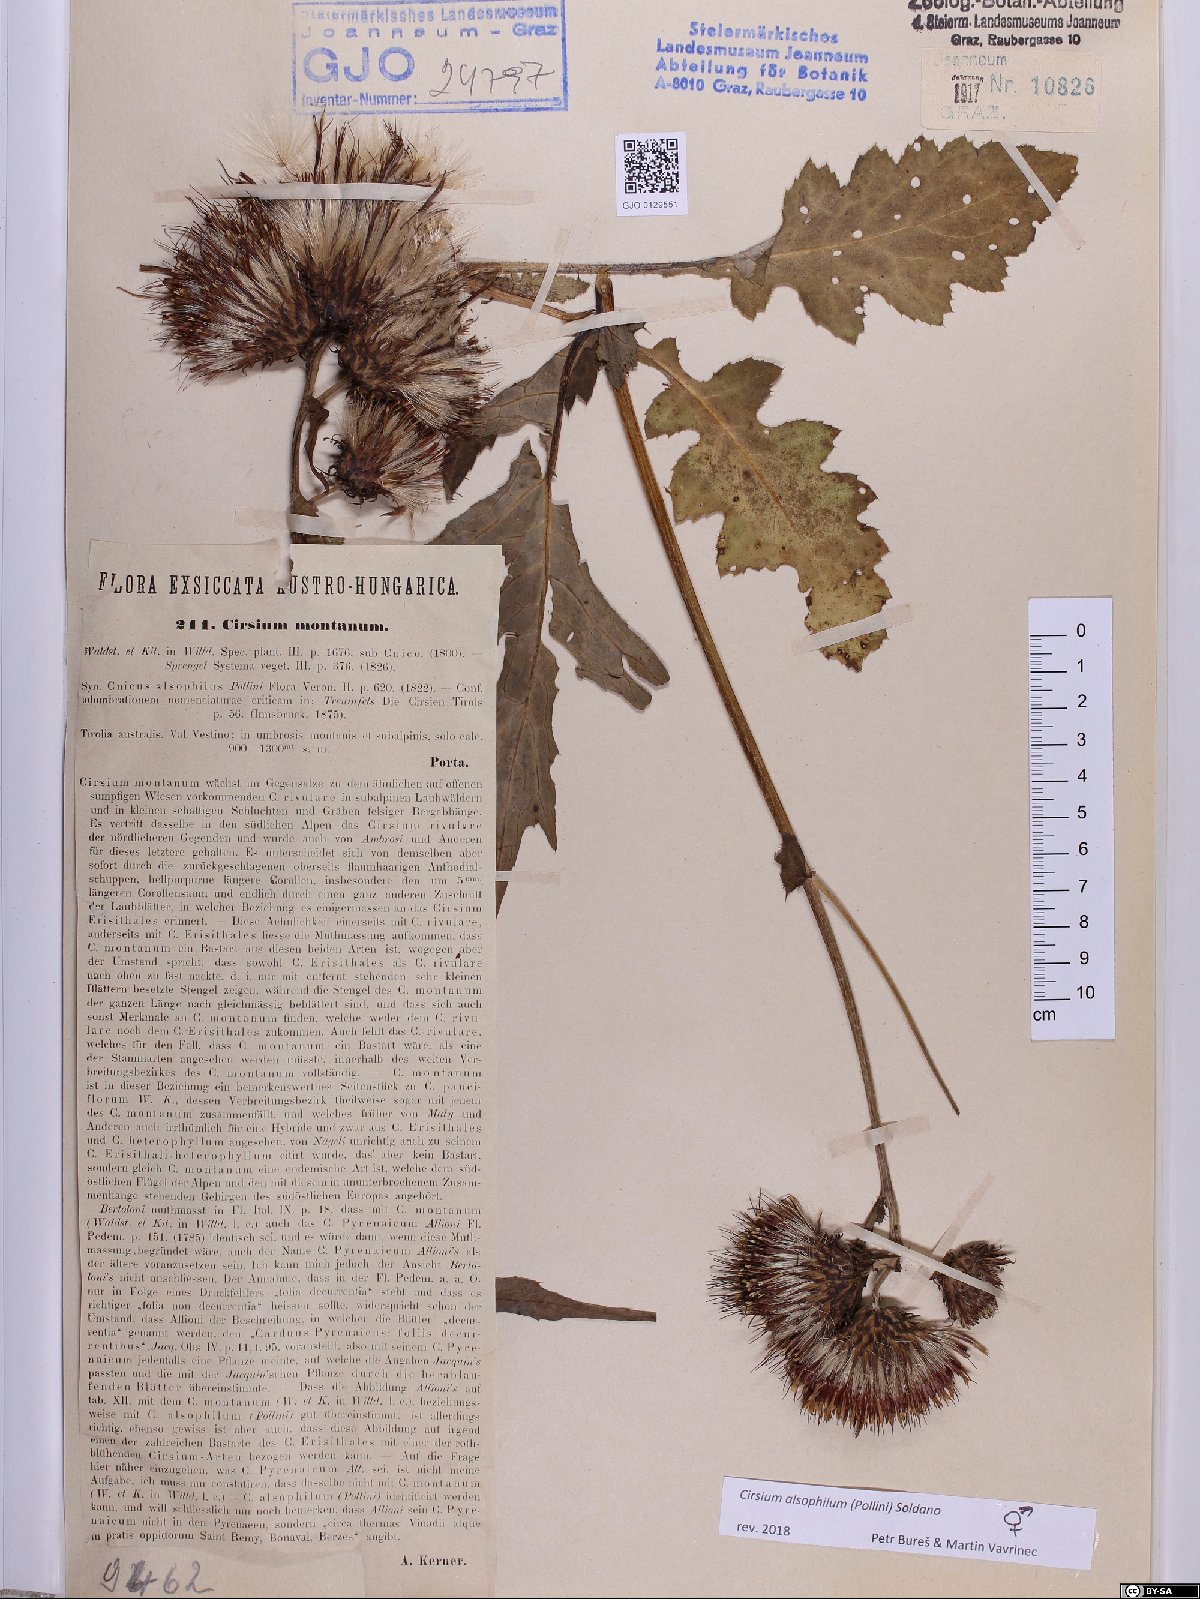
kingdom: Plantae
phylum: Tracheophyta
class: Magnoliopsida
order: Asterales
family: Asteraceae
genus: Cirsium
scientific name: Cirsium alsophilum
